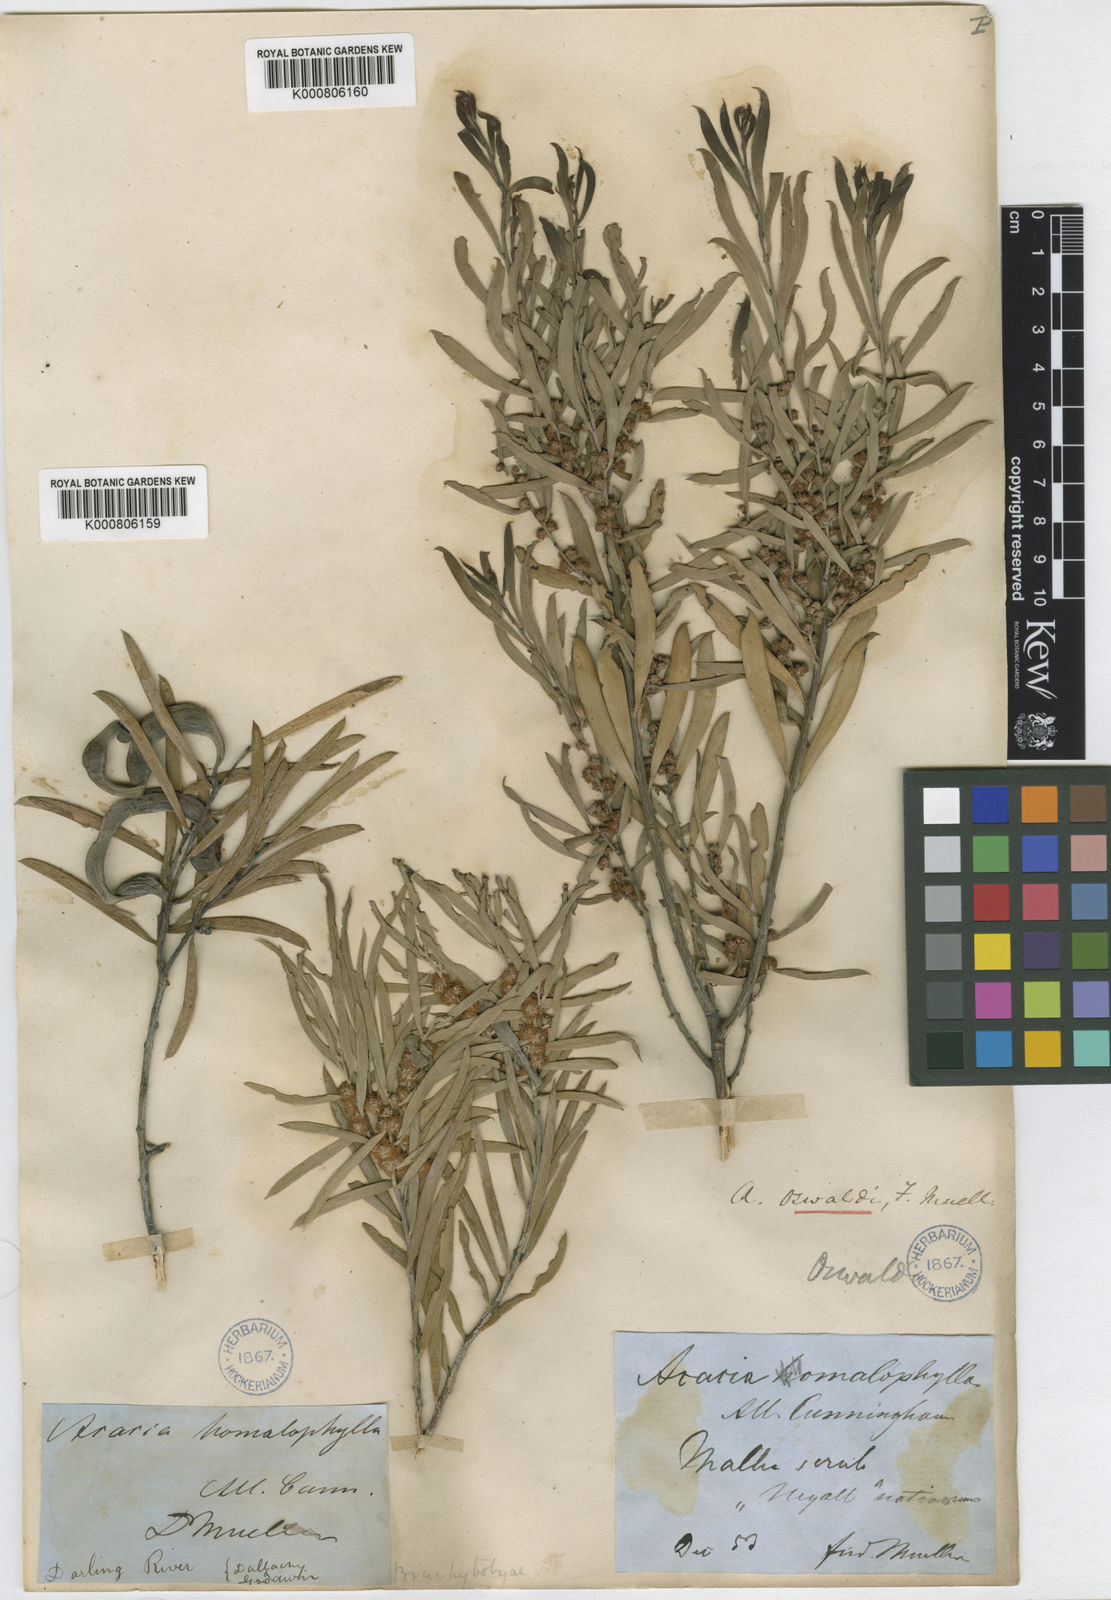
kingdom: Plantae
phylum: Tracheophyta
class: Magnoliopsida
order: Fabales
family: Fabaceae
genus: Acacia
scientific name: Acacia oswaldii
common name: Umbrella wattle
